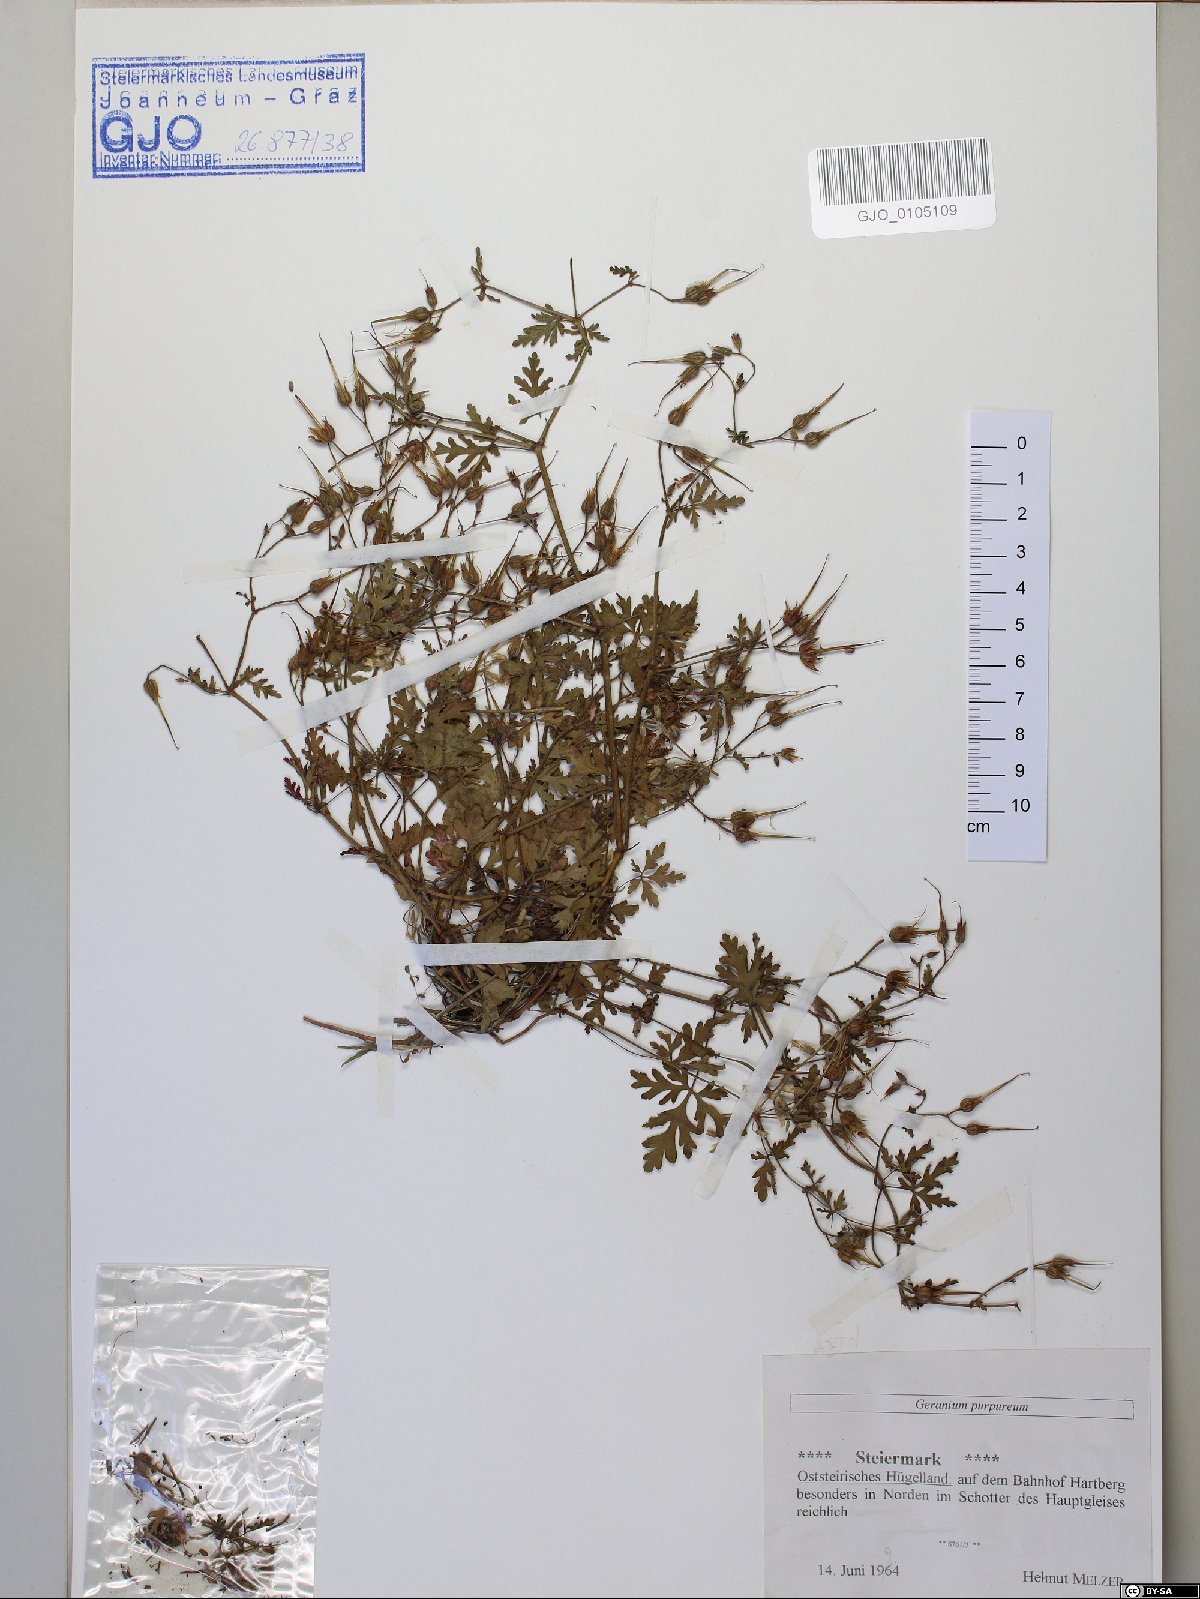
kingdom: Plantae
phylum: Tracheophyta
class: Magnoliopsida
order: Geraniales
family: Geraniaceae
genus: Geranium
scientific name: Geranium purpureum
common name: Little-robin
